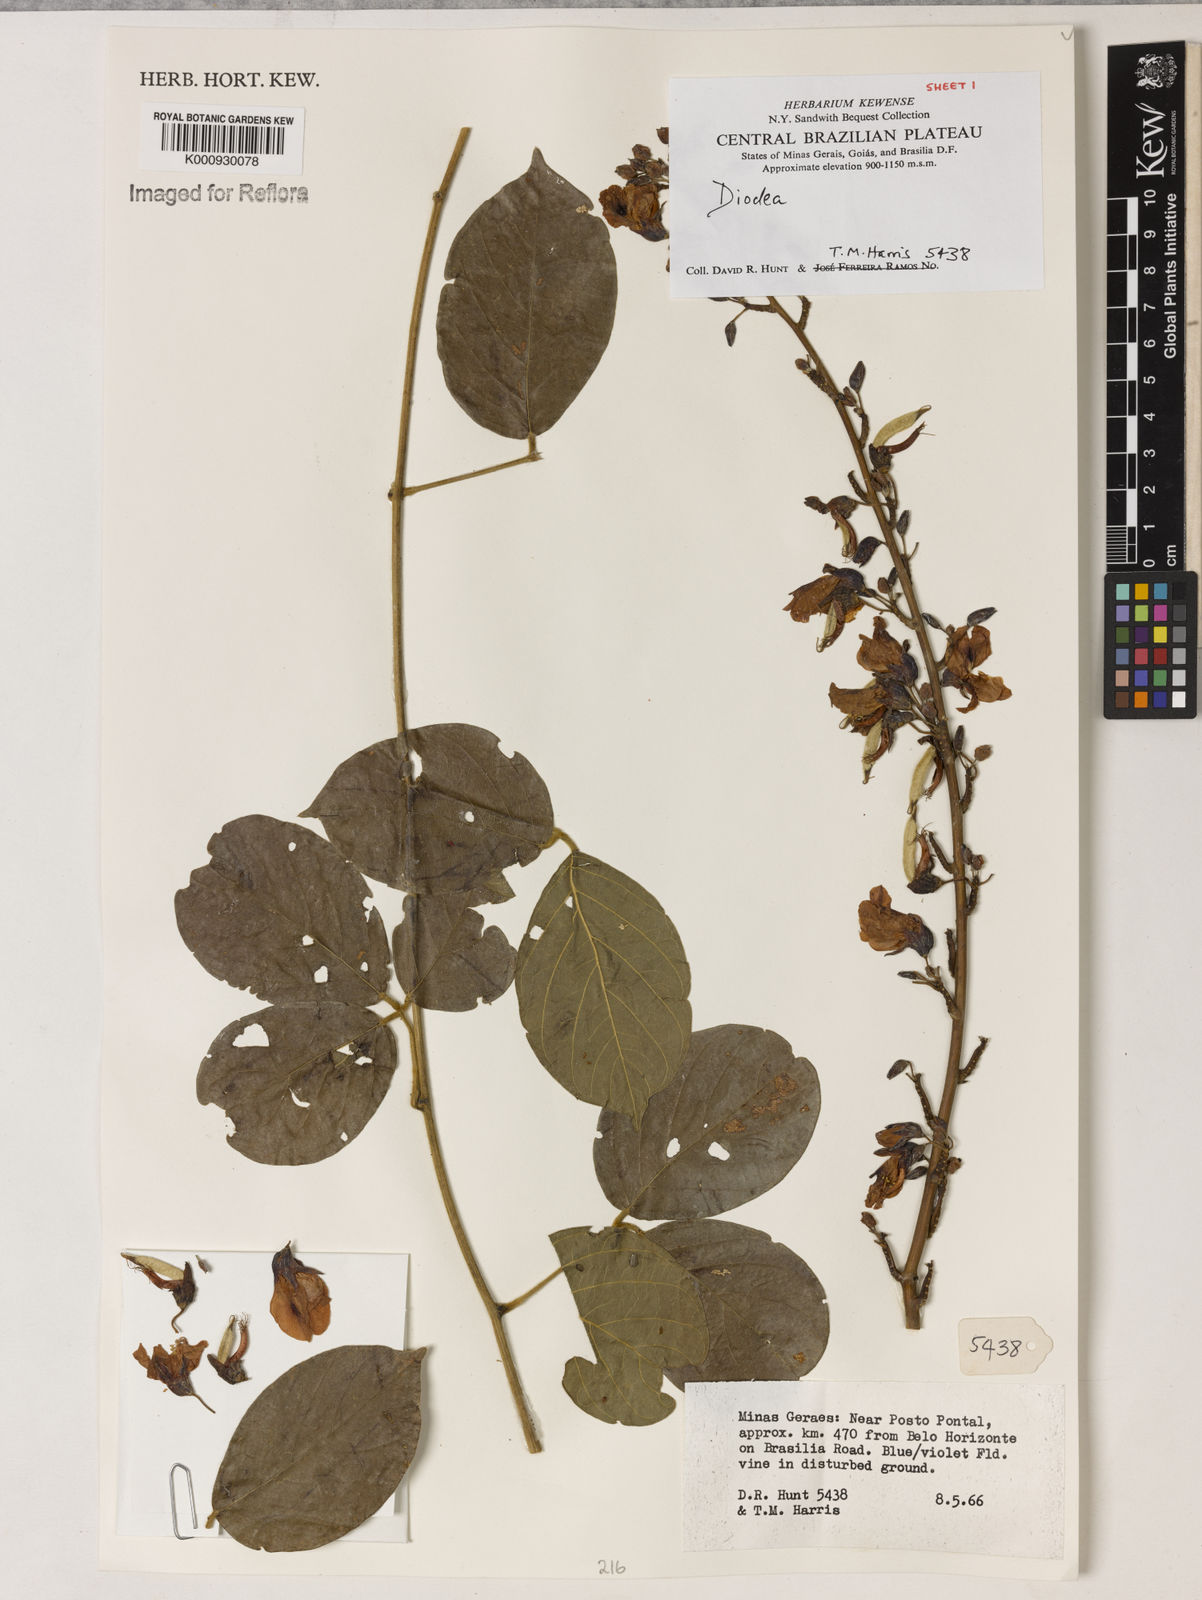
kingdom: Plantae
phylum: Tracheophyta
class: Magnoliopsida
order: Fabales
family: Fabaceae
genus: Dioclea
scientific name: Dioclea
